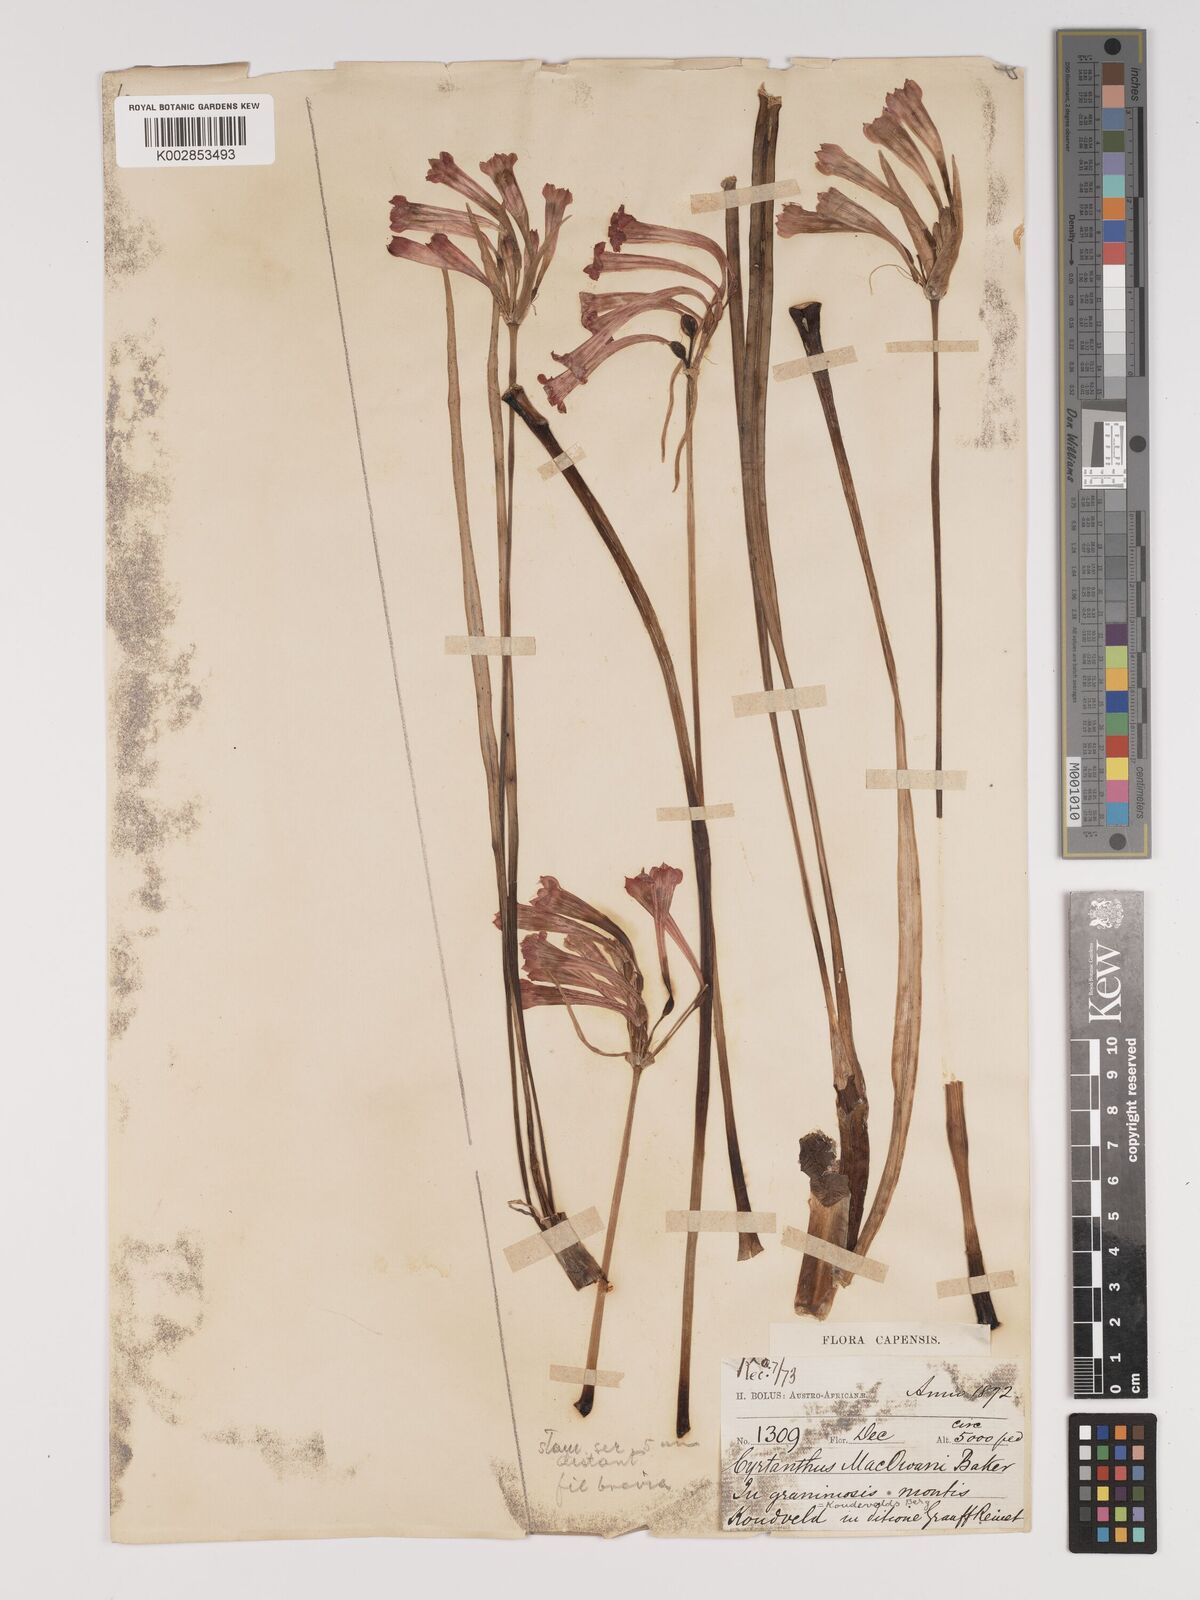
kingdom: Plantae
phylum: Tracheophyta
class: Liliopsida
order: Asparagales
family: Amaryllidaceae
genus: Cyrtanthus
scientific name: Cyrtanthus macowanii
